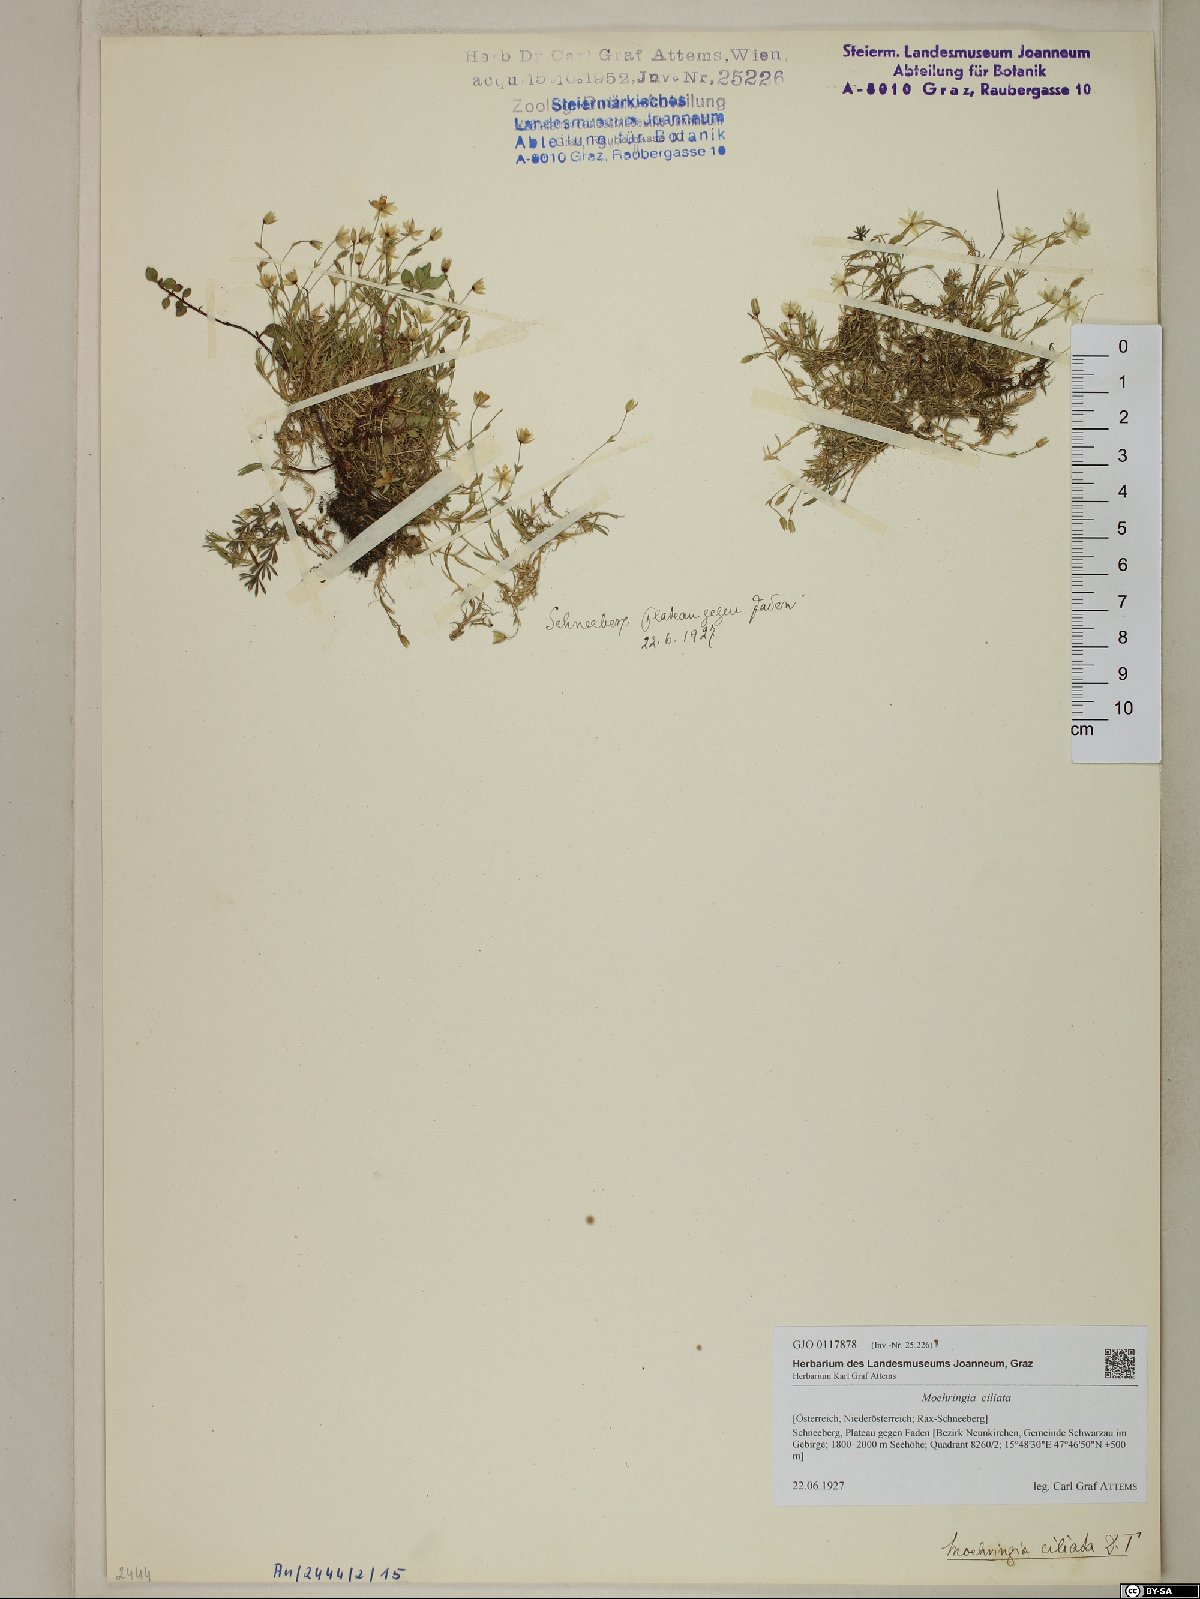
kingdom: Plantae
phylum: Tracheophyta
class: Magnoliopsida
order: Caryophyllales
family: Caryophyllaceae
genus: Moehringia
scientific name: Moehringia ciliata
